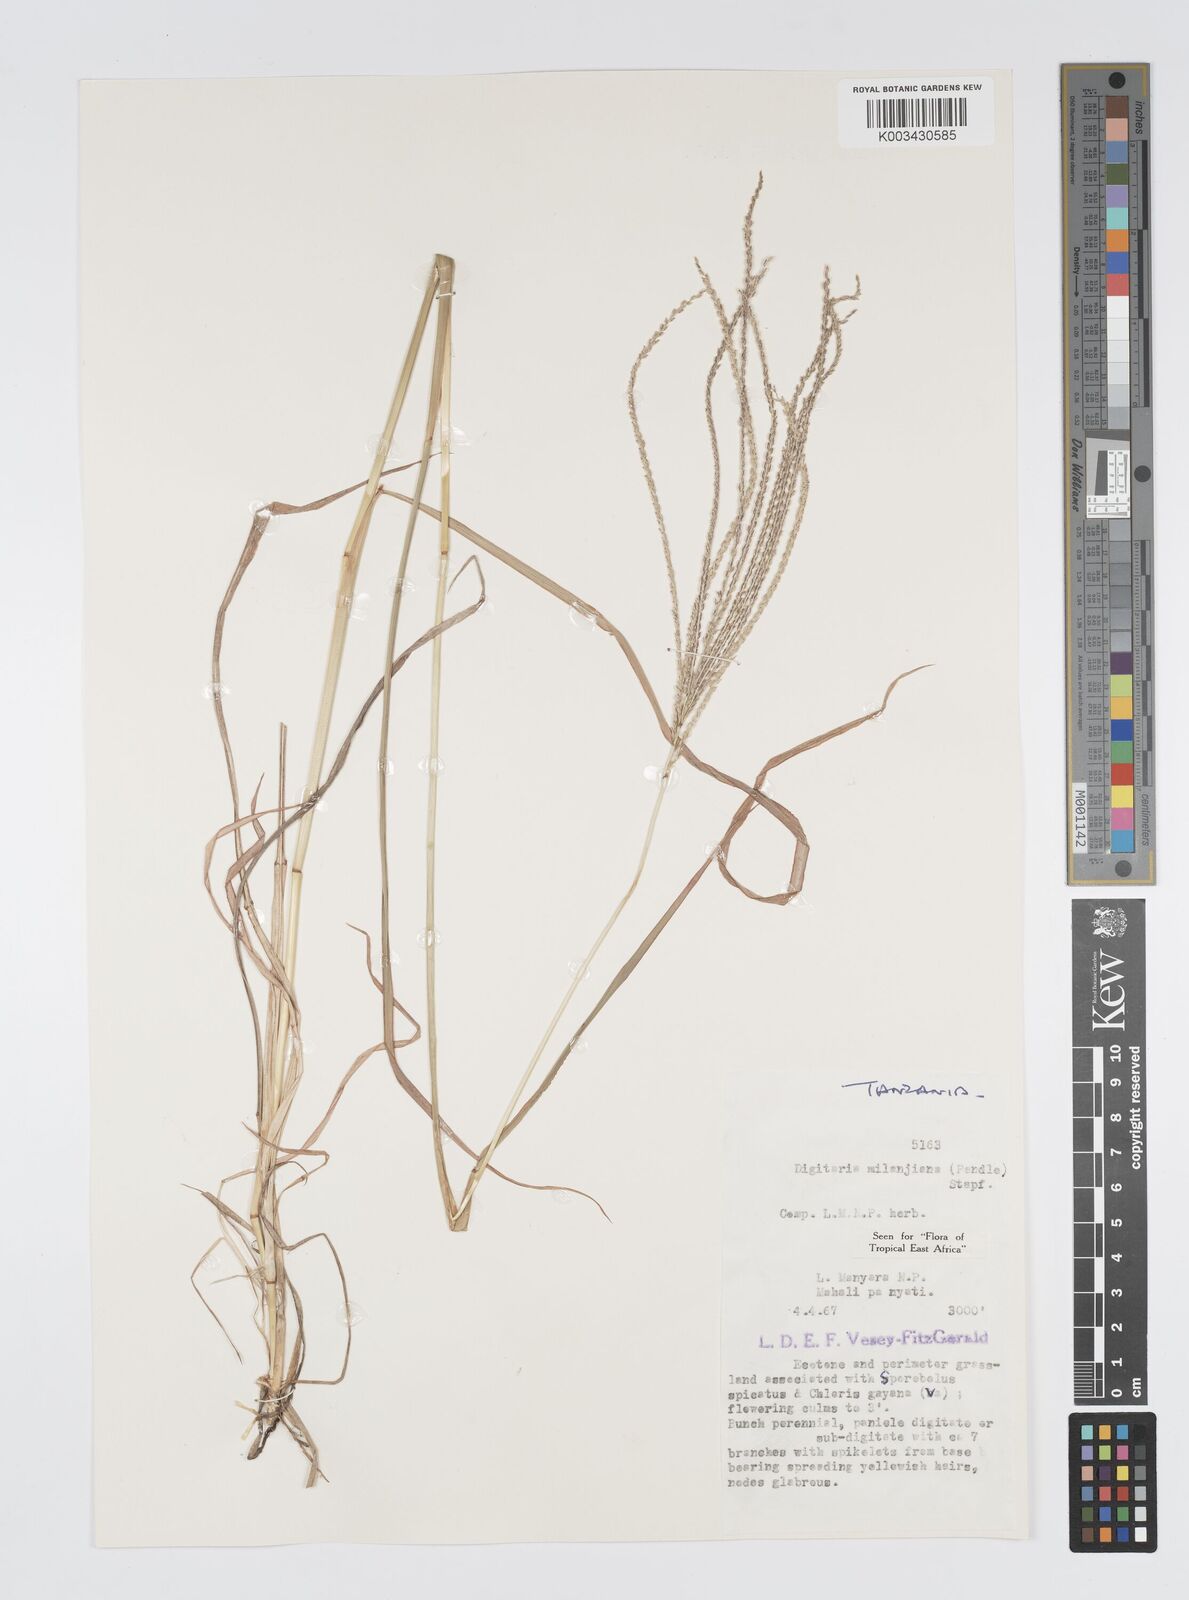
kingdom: Plantae
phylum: Tracheophyta
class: Liliopsida
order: Poales
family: Poaceae
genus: Digitaria
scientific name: Digitaria milanjiana
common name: Madagascar crabgrass
